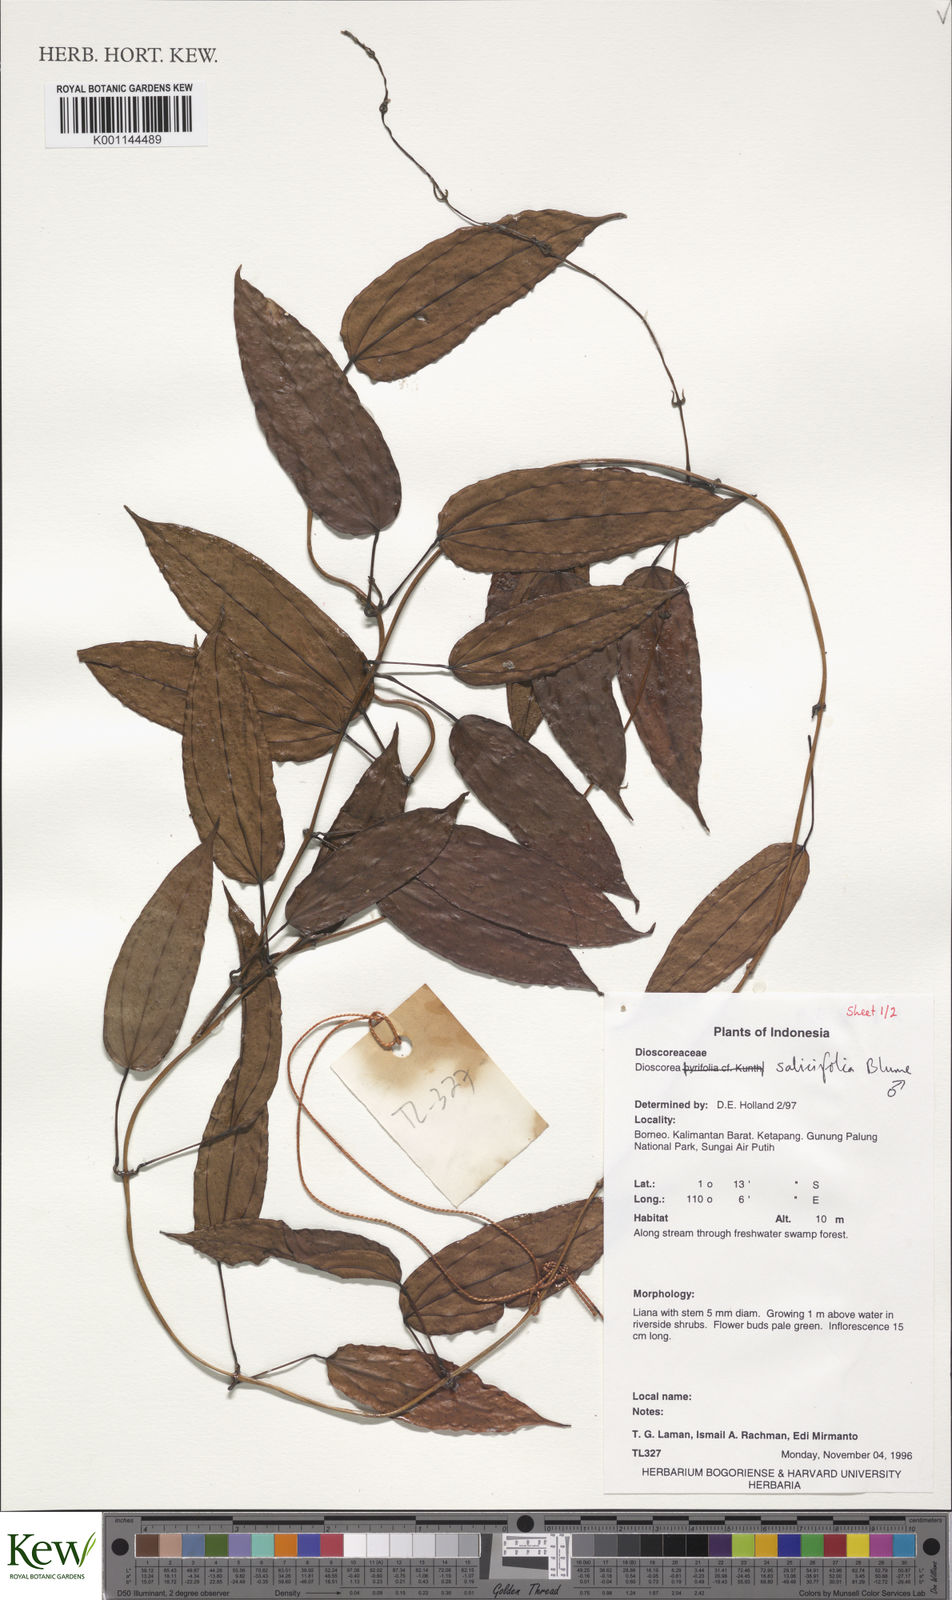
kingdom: Plantae
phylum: Tracheophyta
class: Liliopsida
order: Dioscoreales
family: Dioscoreaceae
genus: Dioscorea
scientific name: Dioscorea salicifolia
